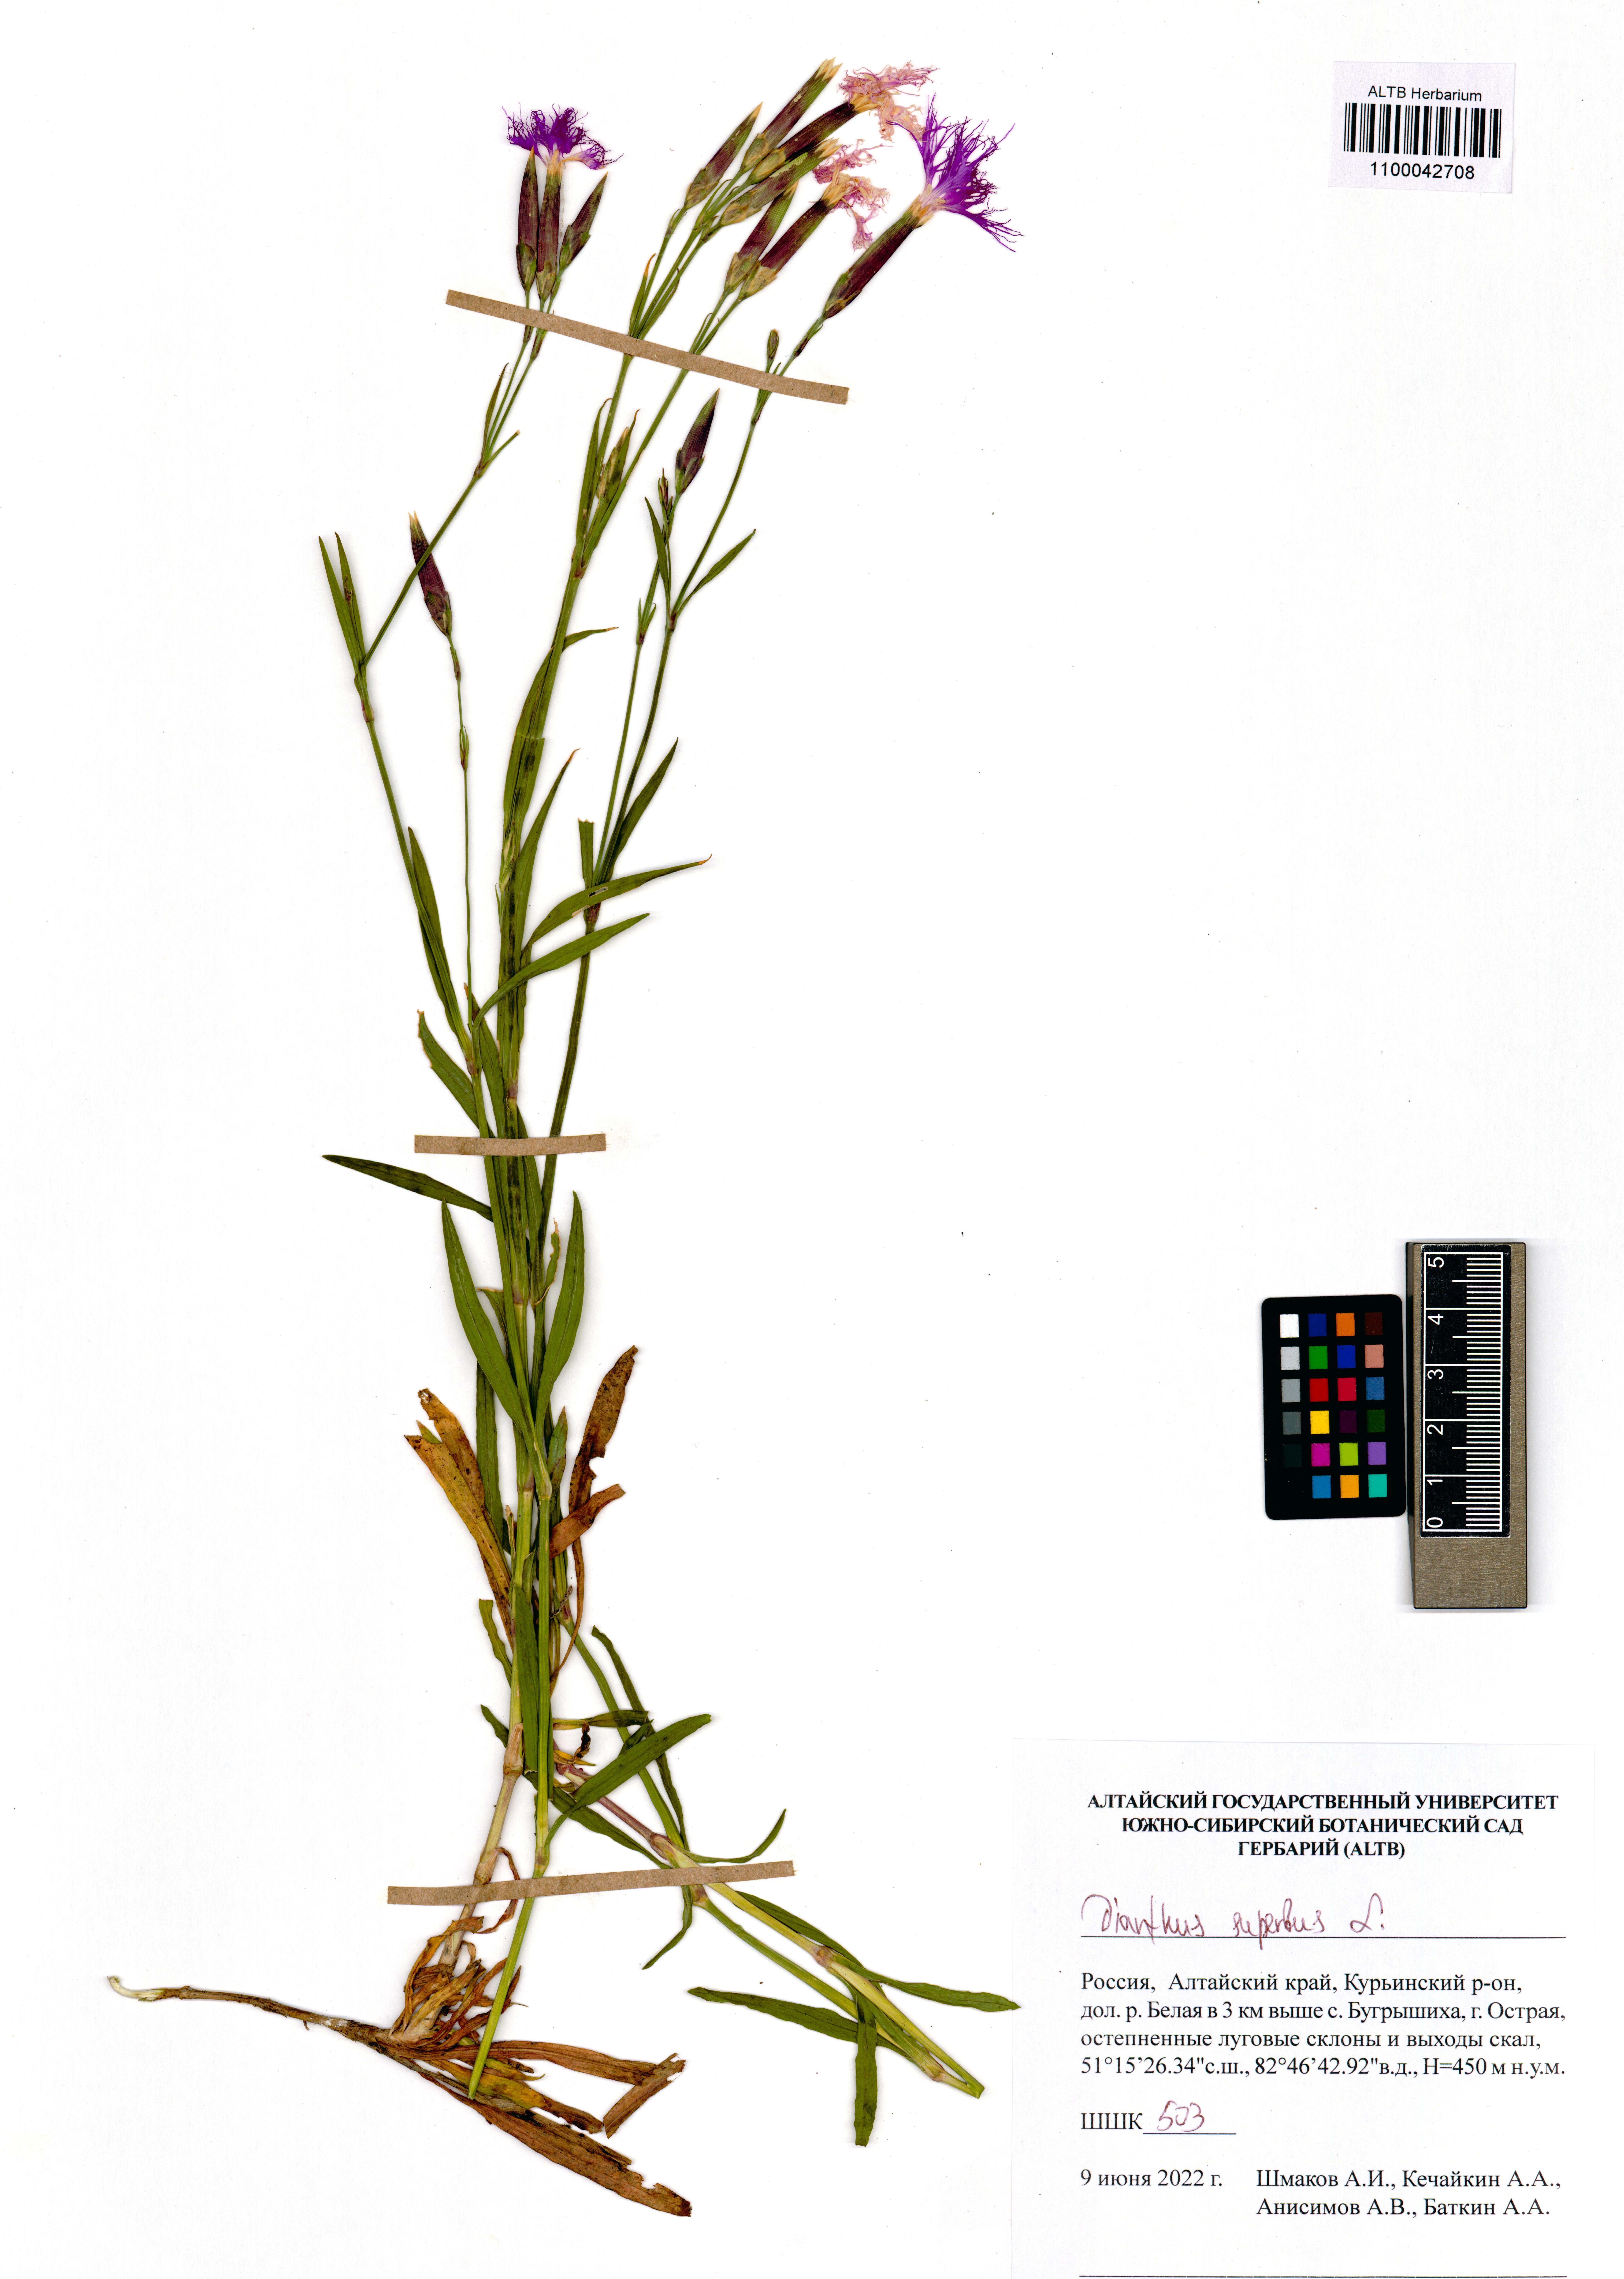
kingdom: Plantae
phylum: Tracheophyta
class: Magnoliopsida
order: Caryophyllales
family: Caryophyllaceae
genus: Dianthus
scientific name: Dianthus superbus
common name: Fringed pink
